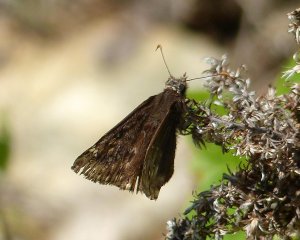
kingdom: Animalia
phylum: Arthropoda
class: Insecta
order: Lepidoptera
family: Hesperiidae
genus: Gesta
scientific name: Gesta
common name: Juvenal's Duskywing
